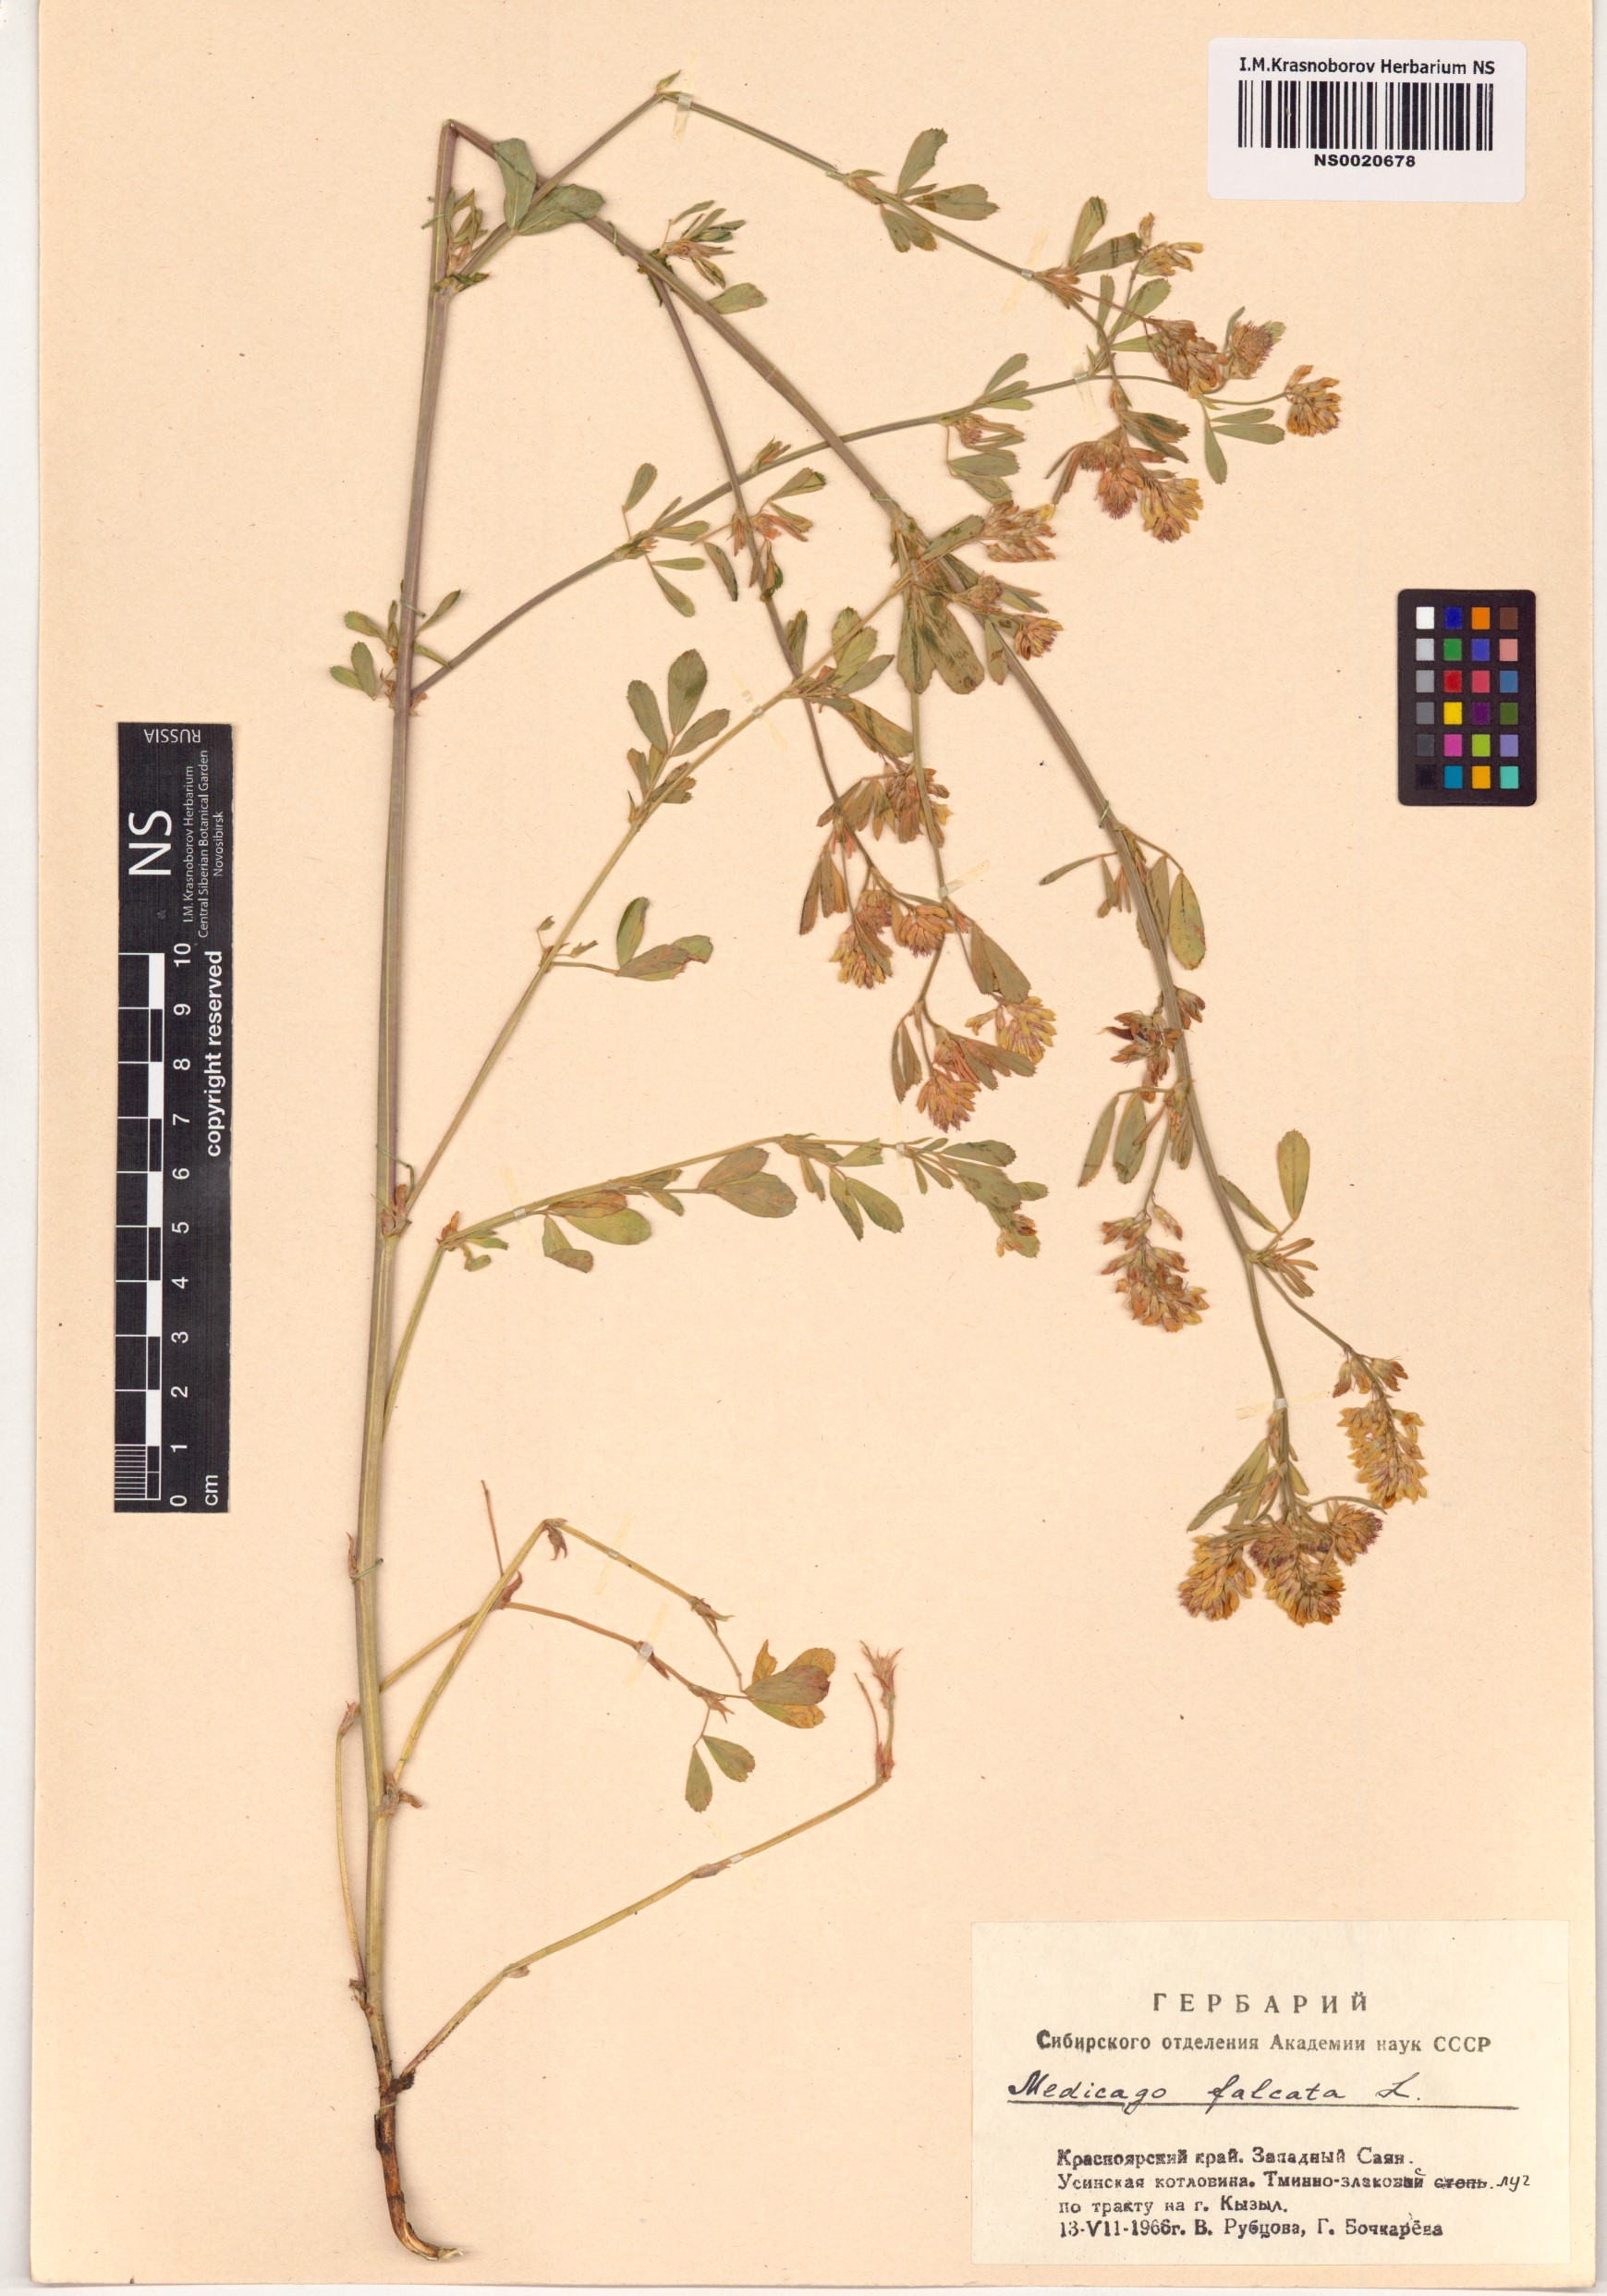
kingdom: Plantae
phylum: Tracheophyta
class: Magnoliopsida
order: Fabales
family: Fabaceae
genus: Medicago
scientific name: Medicago falcata
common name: Sickle medick
